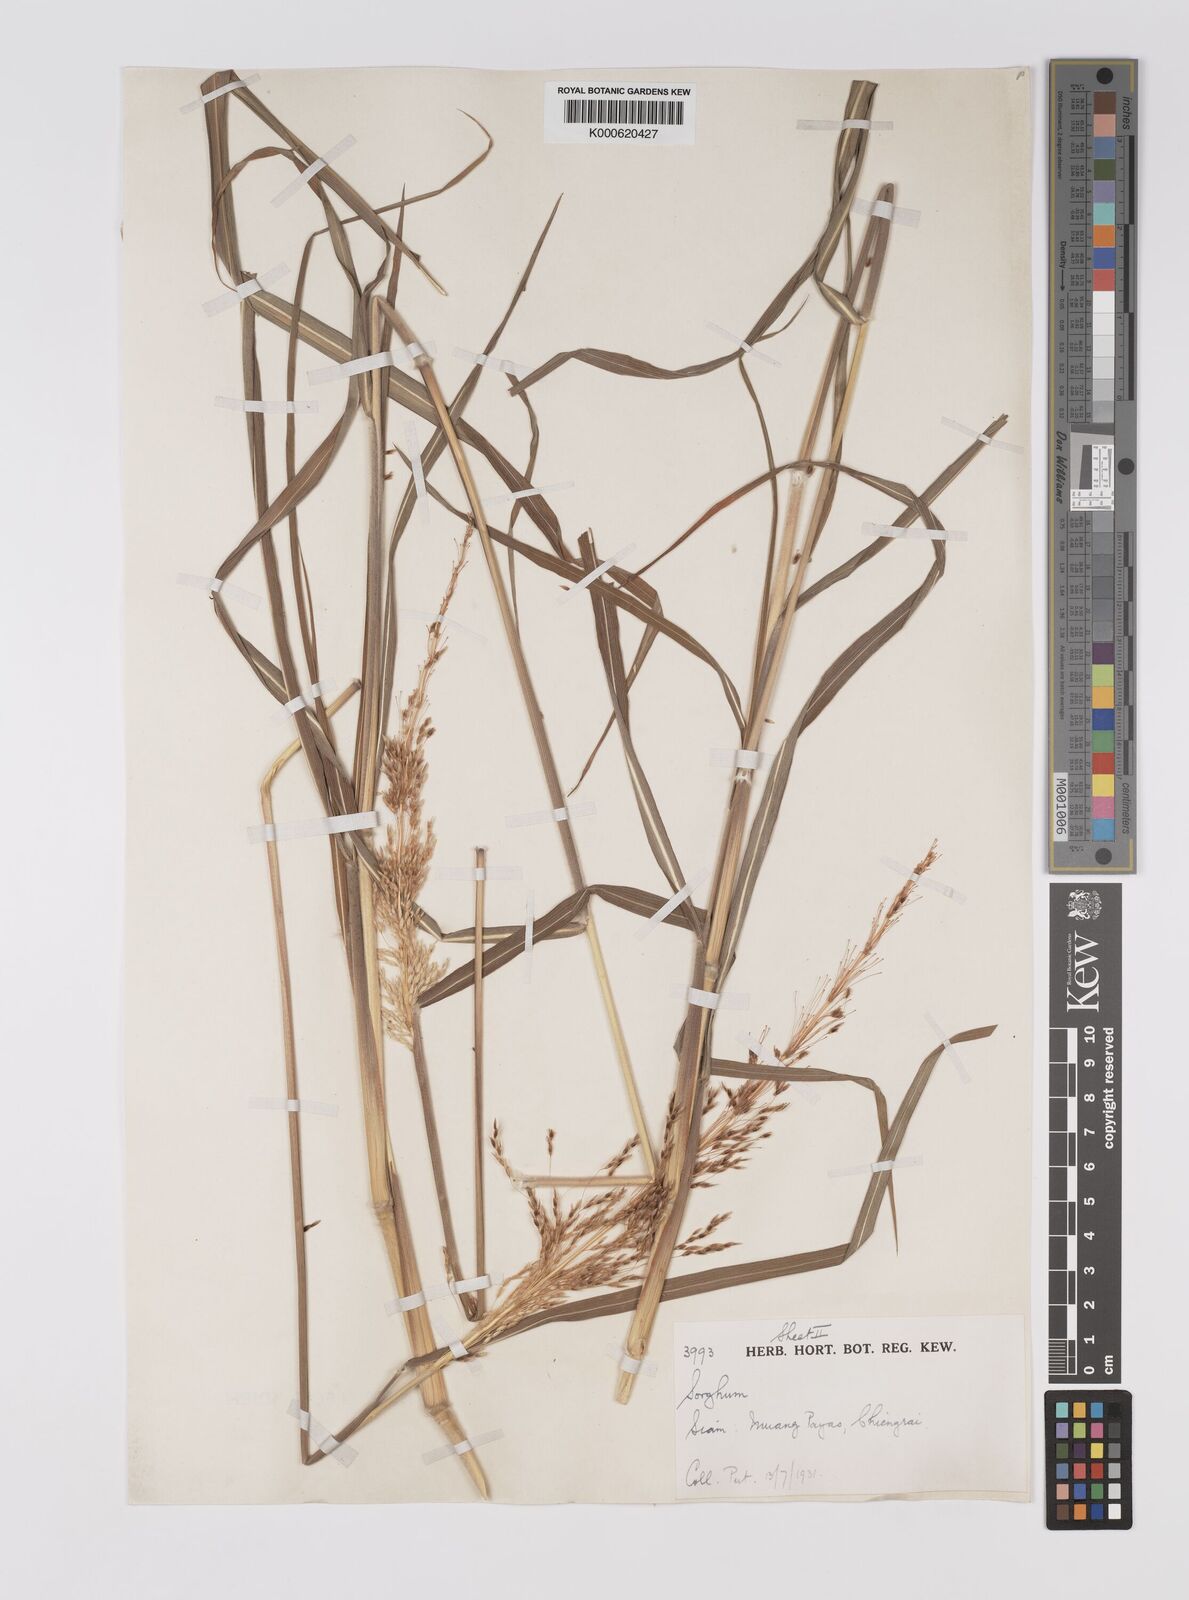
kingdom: Plantae
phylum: Tracheophyta
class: Liliopsida
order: Poales
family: Poaceae
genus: Sorghum
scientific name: Sorghum nitidum
